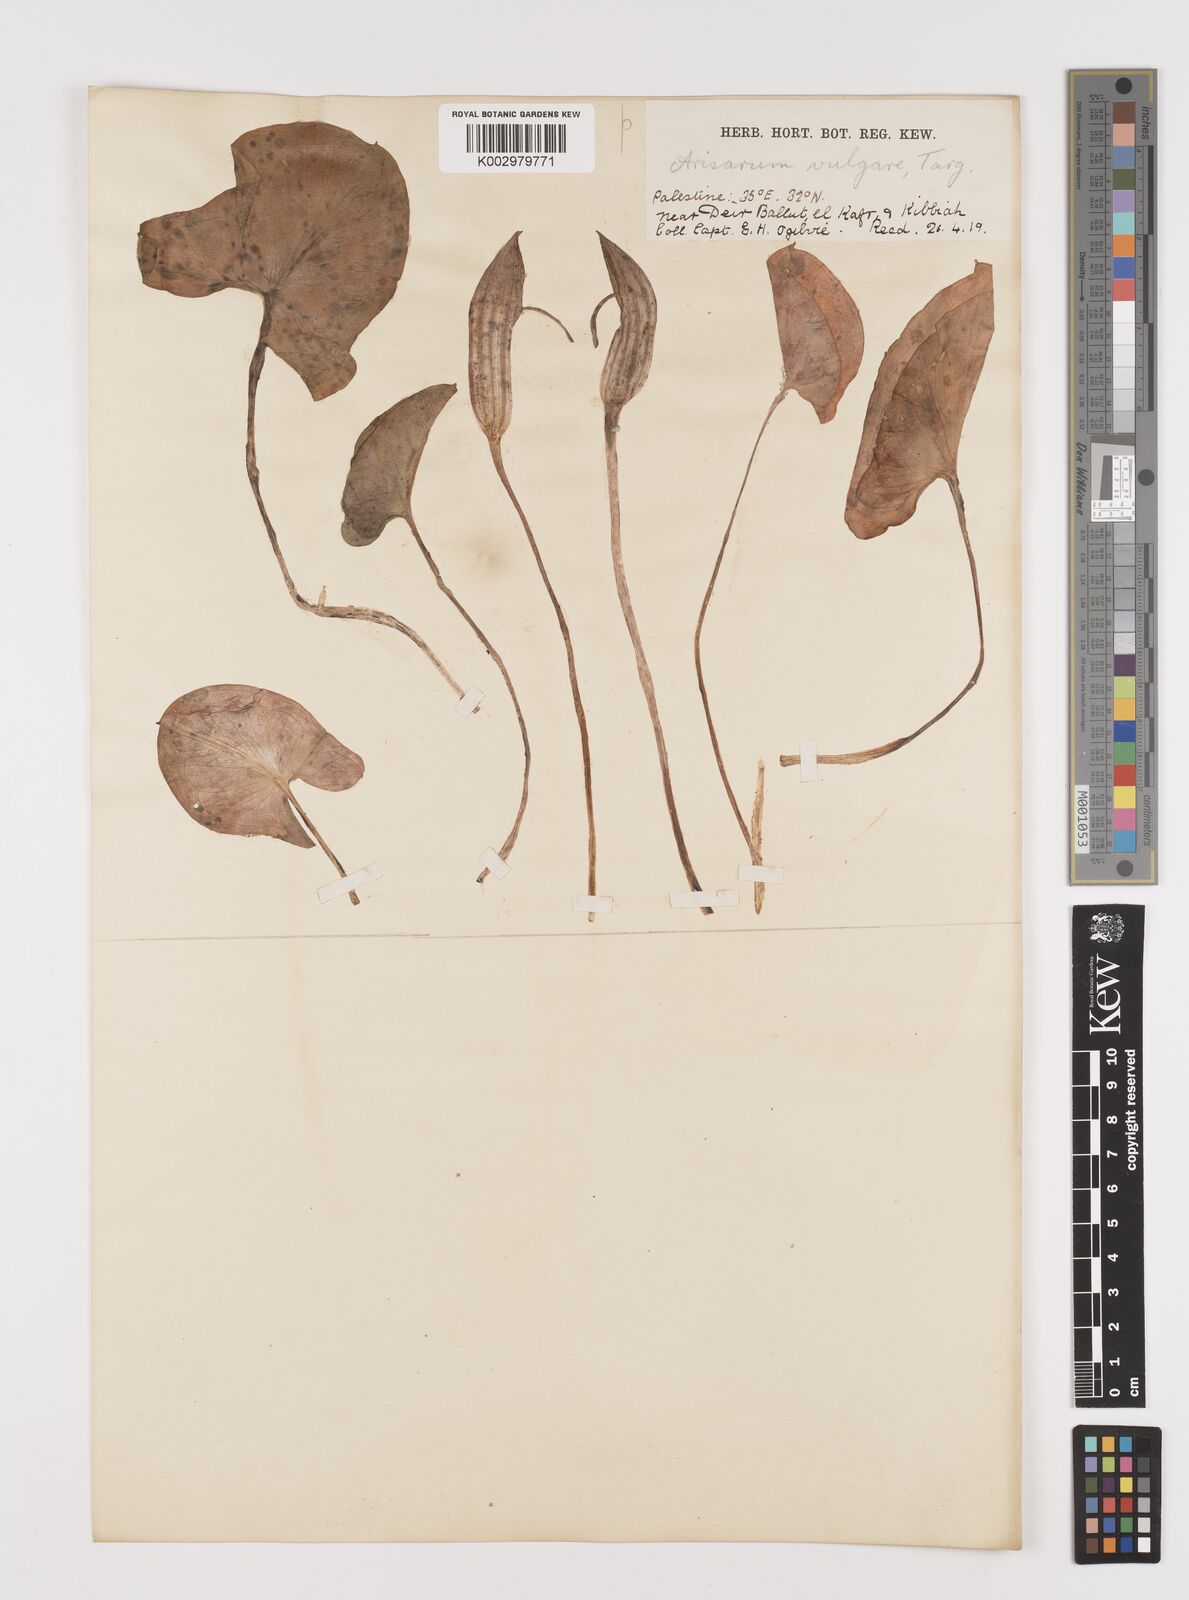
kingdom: Plantae
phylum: Tracheophyta
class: Liliopsida
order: Alismatales
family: Araceae
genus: Arisarum
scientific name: Arisarum vulgare
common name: Common arisarum
